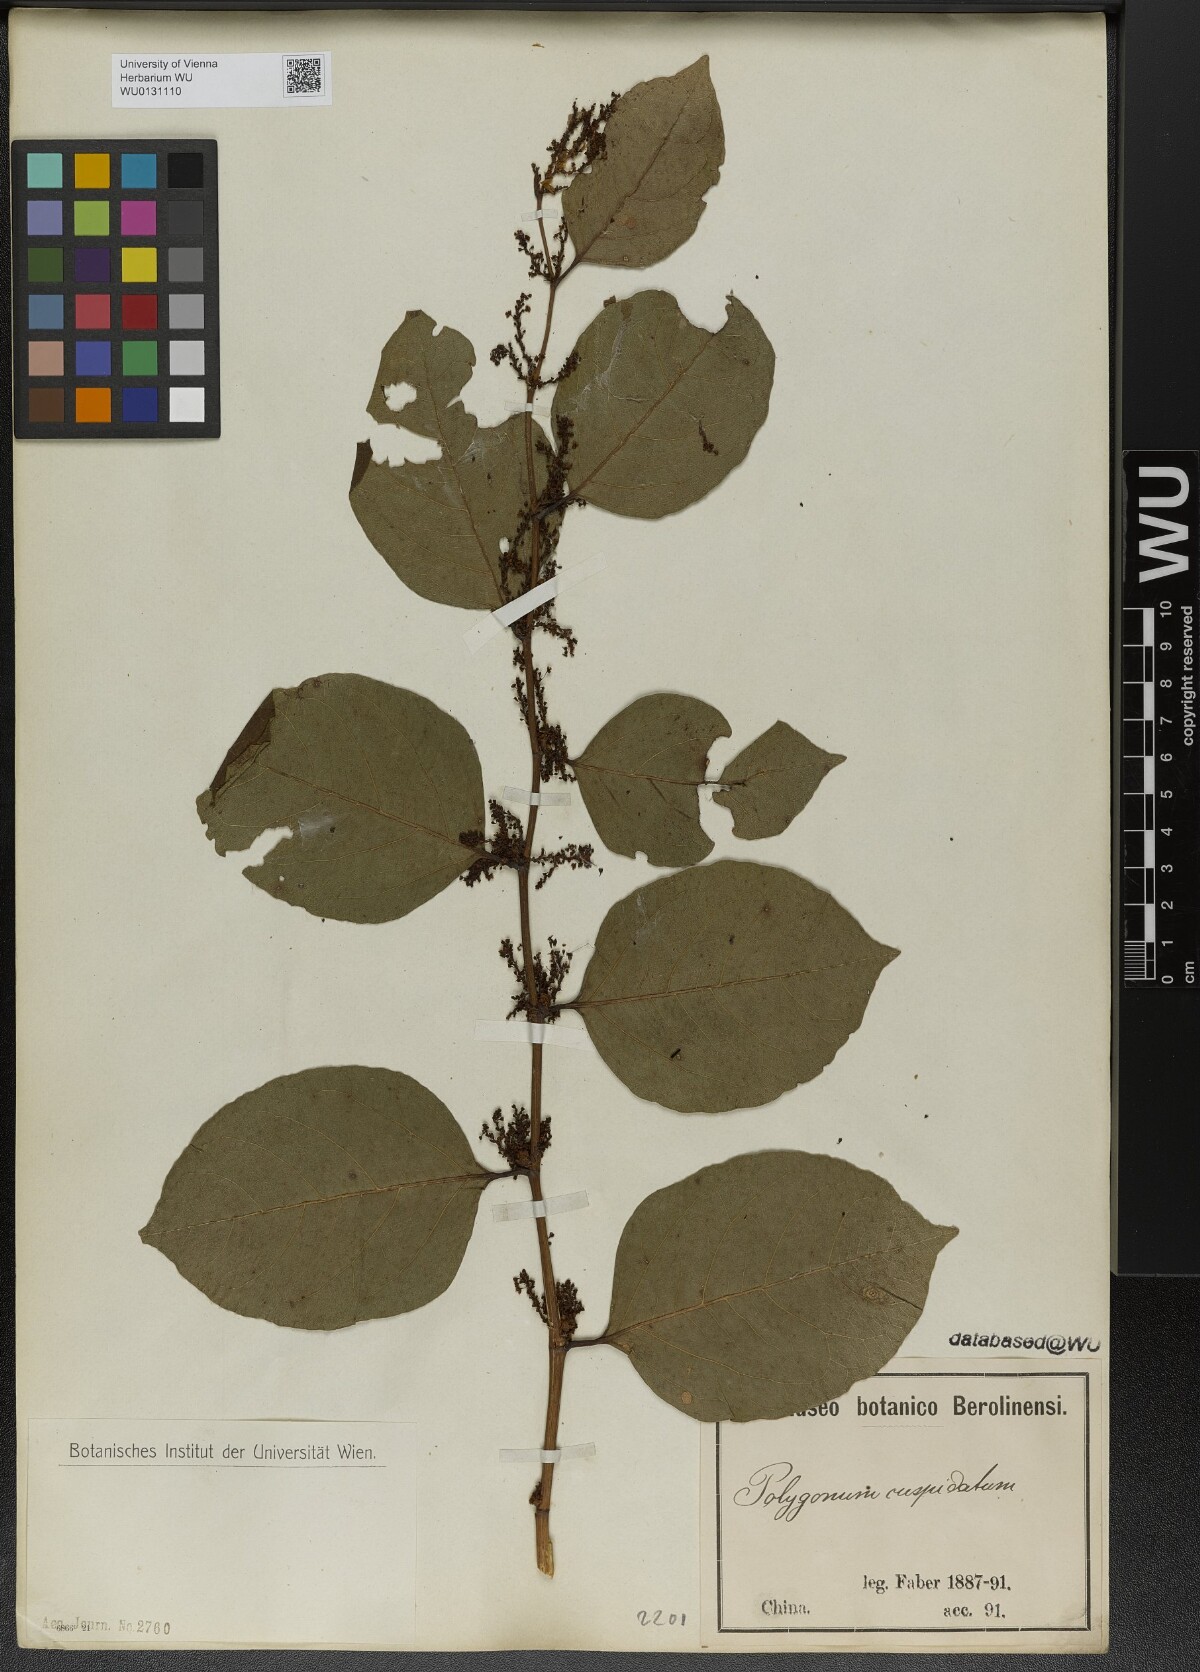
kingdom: Plantae
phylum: Tracheophyta
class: Magnoliopsida
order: Caryophyllales
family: Polygonaceae
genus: Reynoutria
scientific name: Reynoutria japonica
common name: Japanese knotweed
